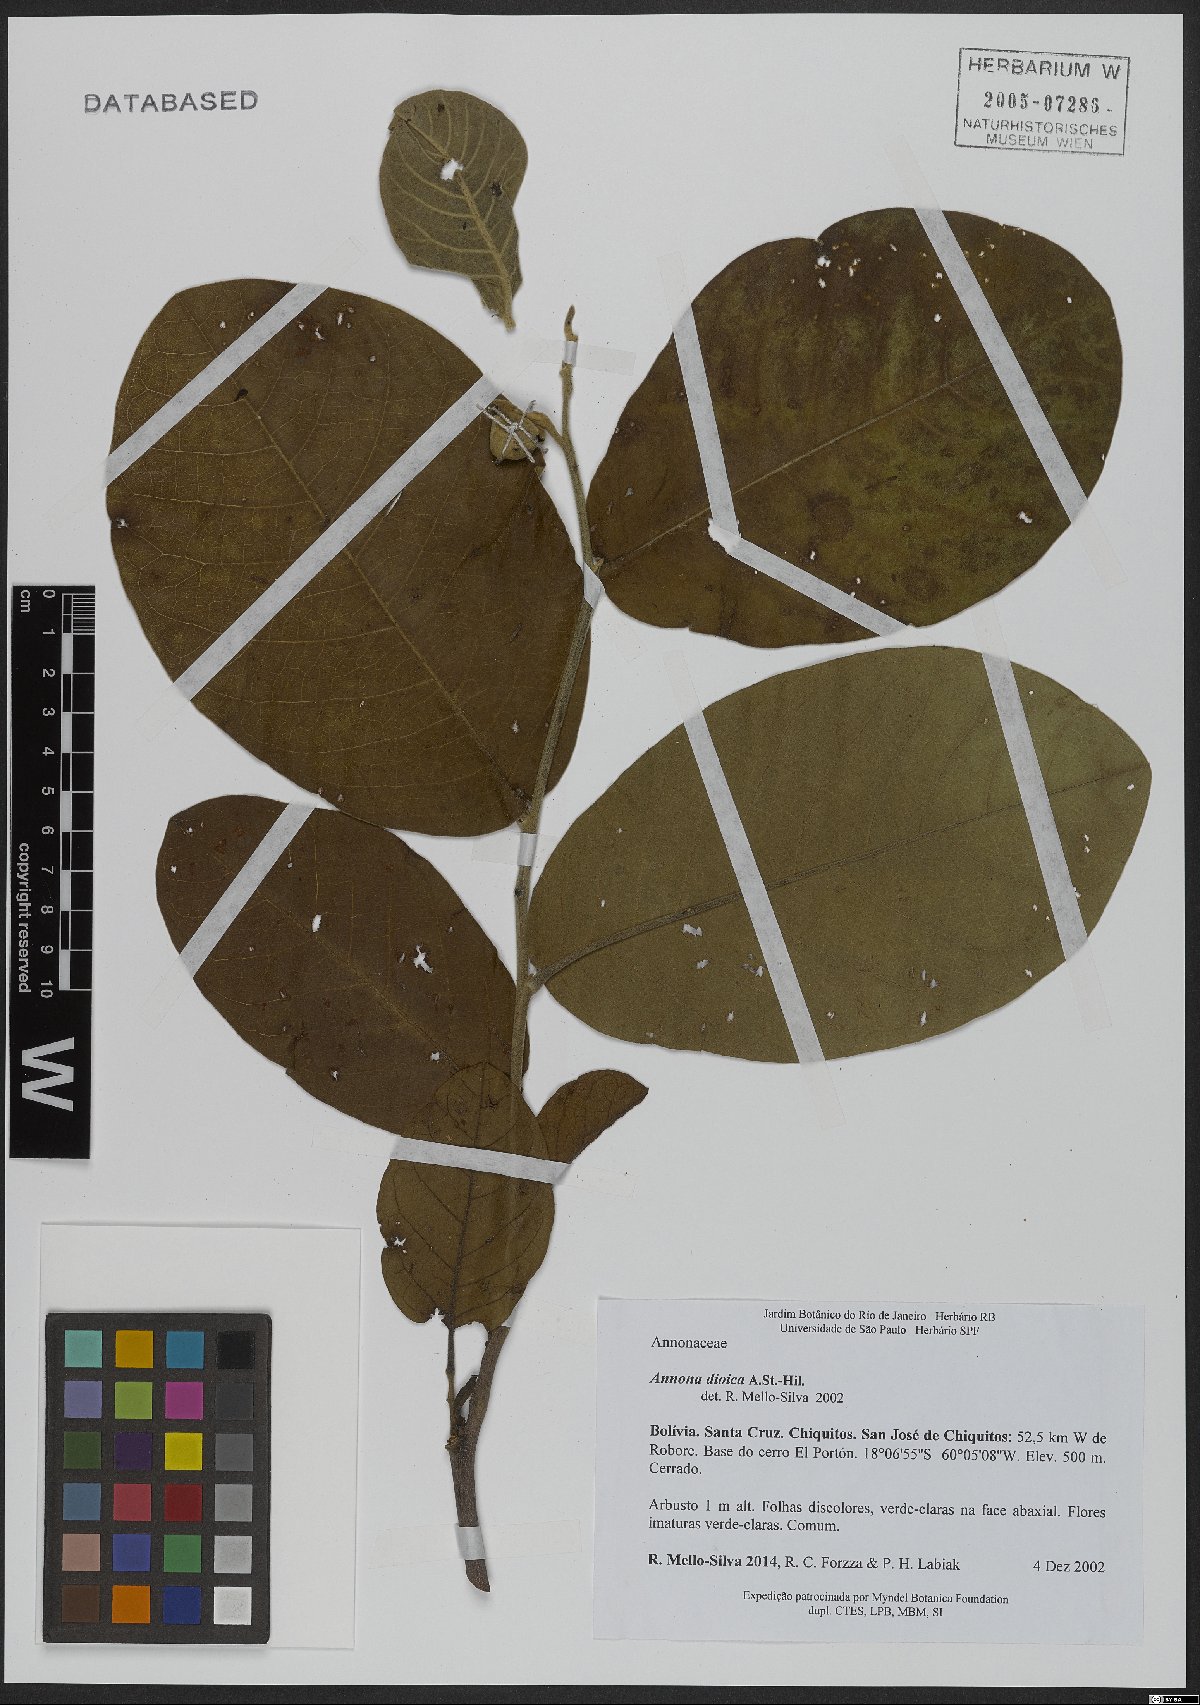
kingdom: Plantae
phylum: Tracheophyta
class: Magnoliopsida
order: Magnoliales
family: Annonaceae
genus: Annona
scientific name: Annona dioica
